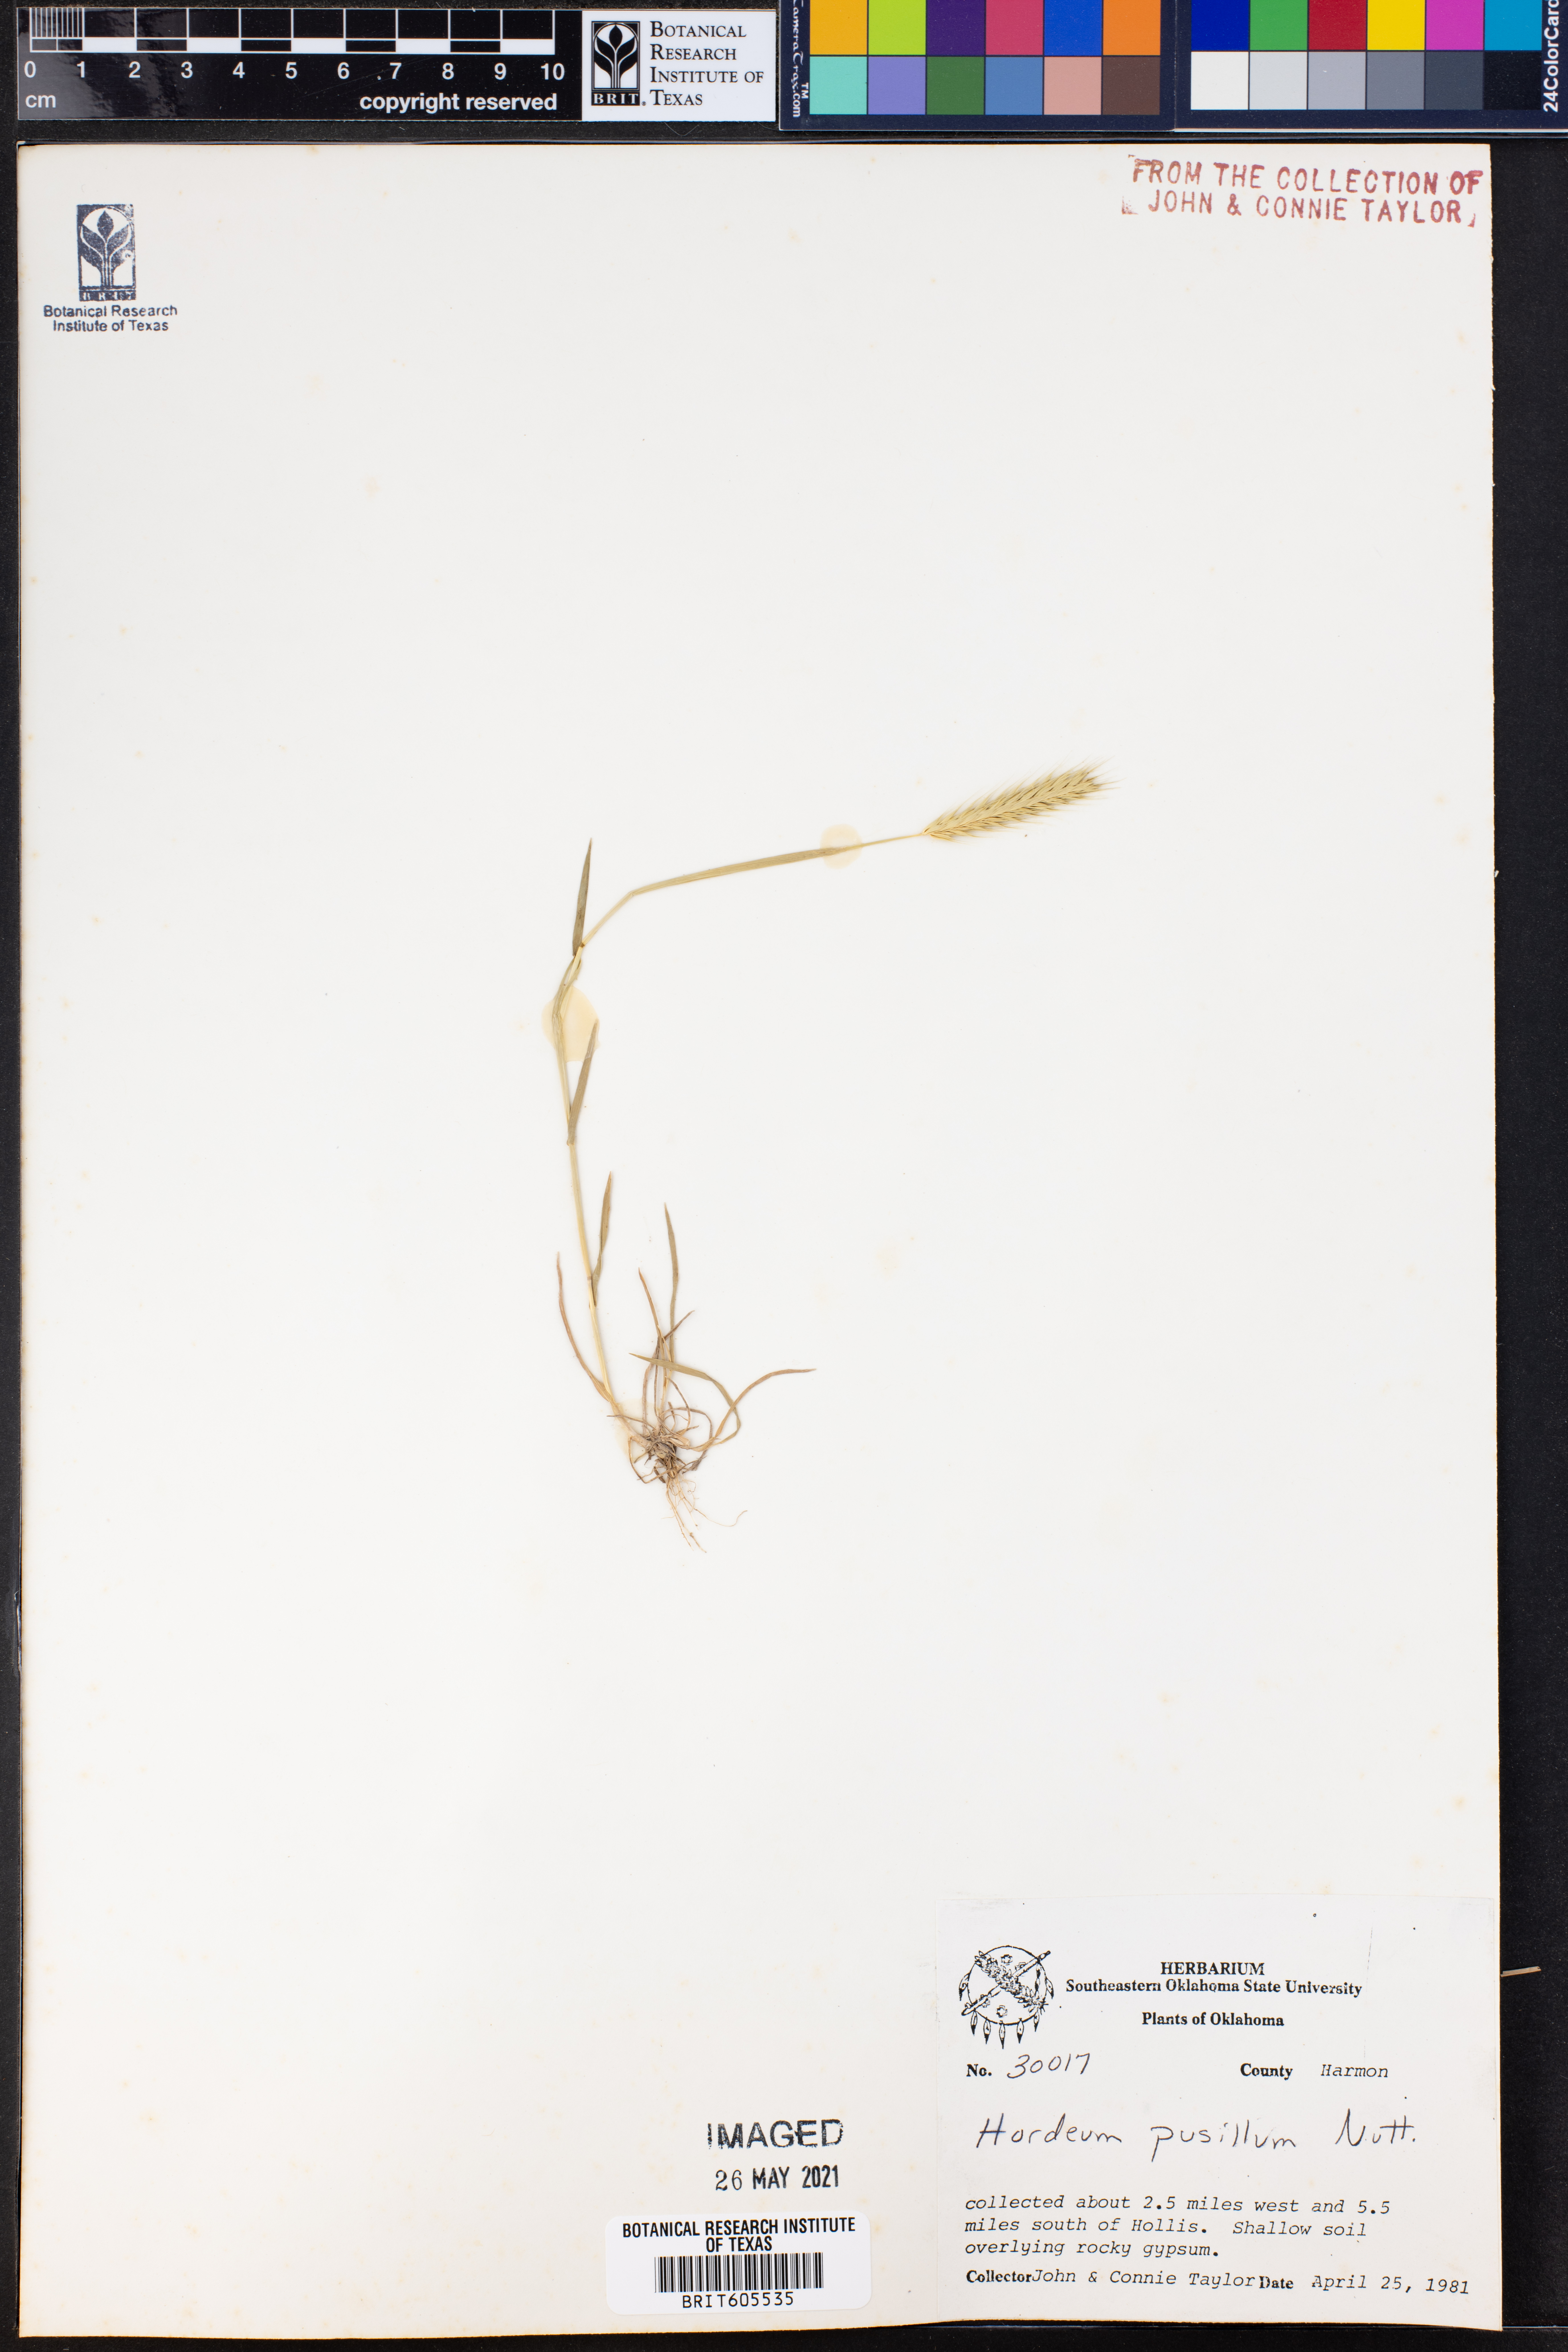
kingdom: Plantae
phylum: Tracheophyta
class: Liliopsida
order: Poales
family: Poaceae
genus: Hordeum
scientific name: Hordeum pusillum
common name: Little barley
